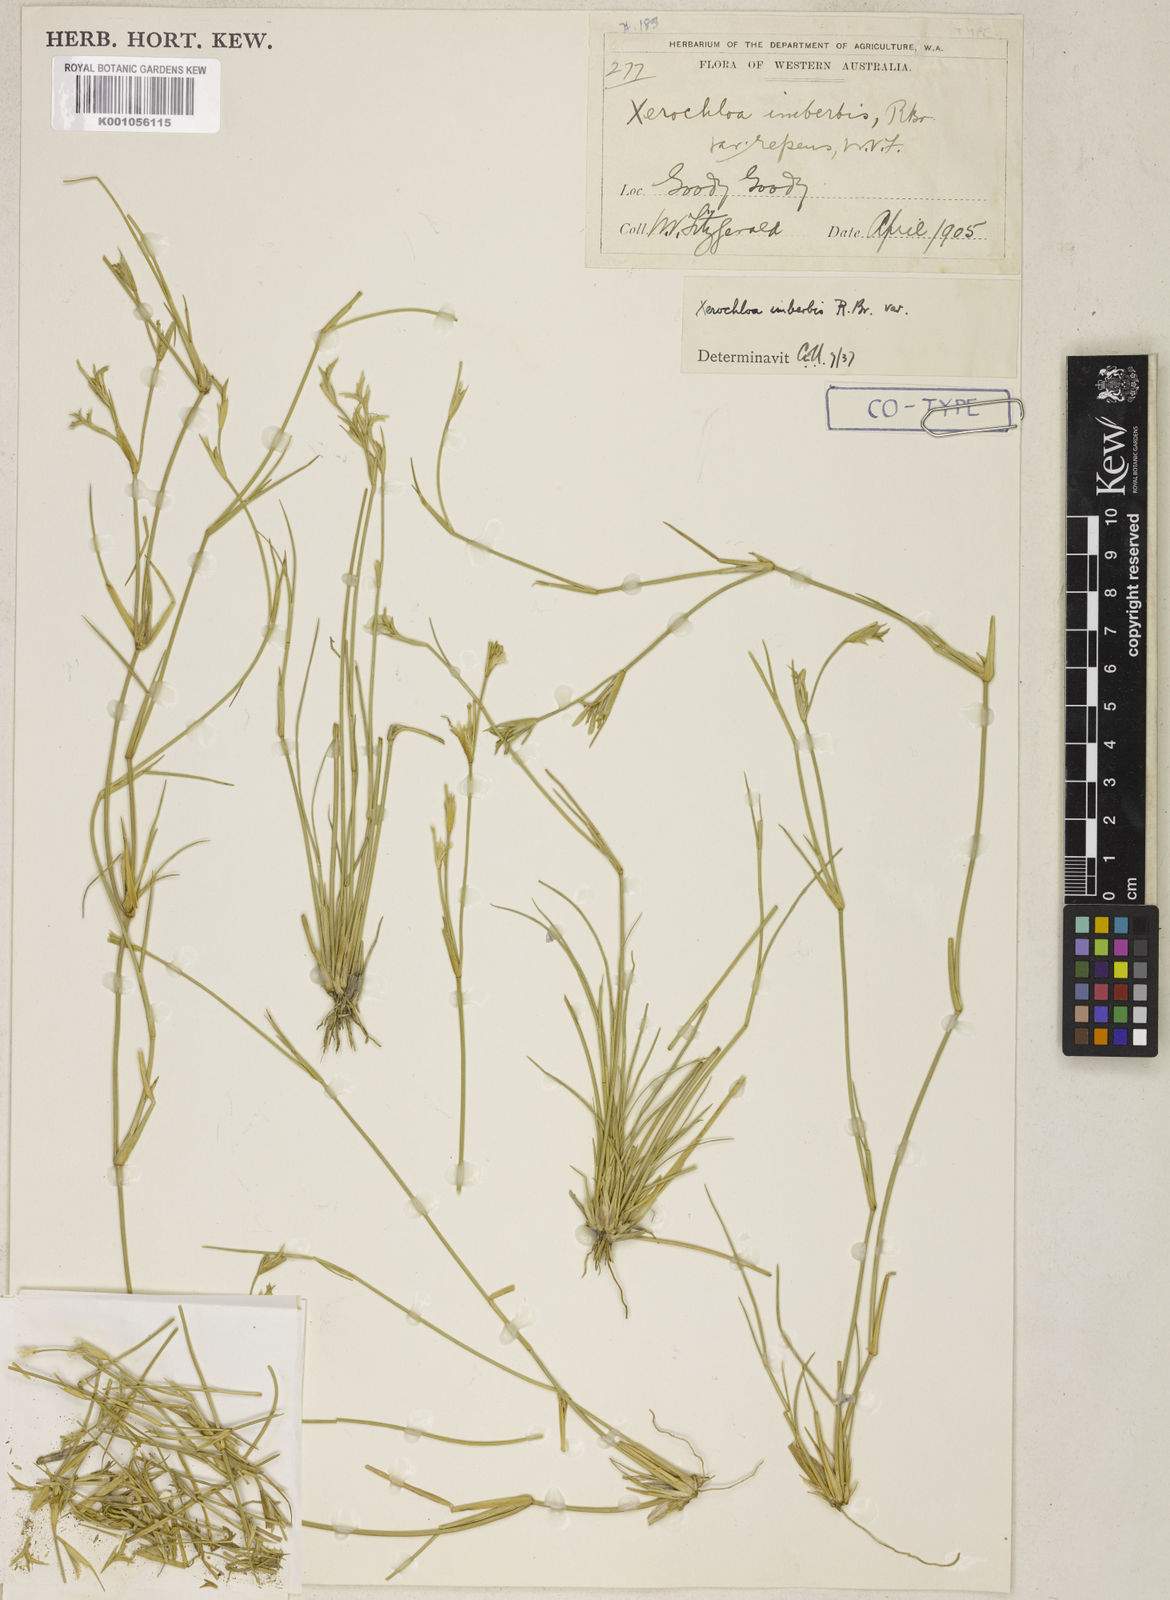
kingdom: Plantae
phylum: Tracheophyta
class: Liliopsida
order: Poales
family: Poaceae
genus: Xerochloa
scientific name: Xerochloa imberbis
